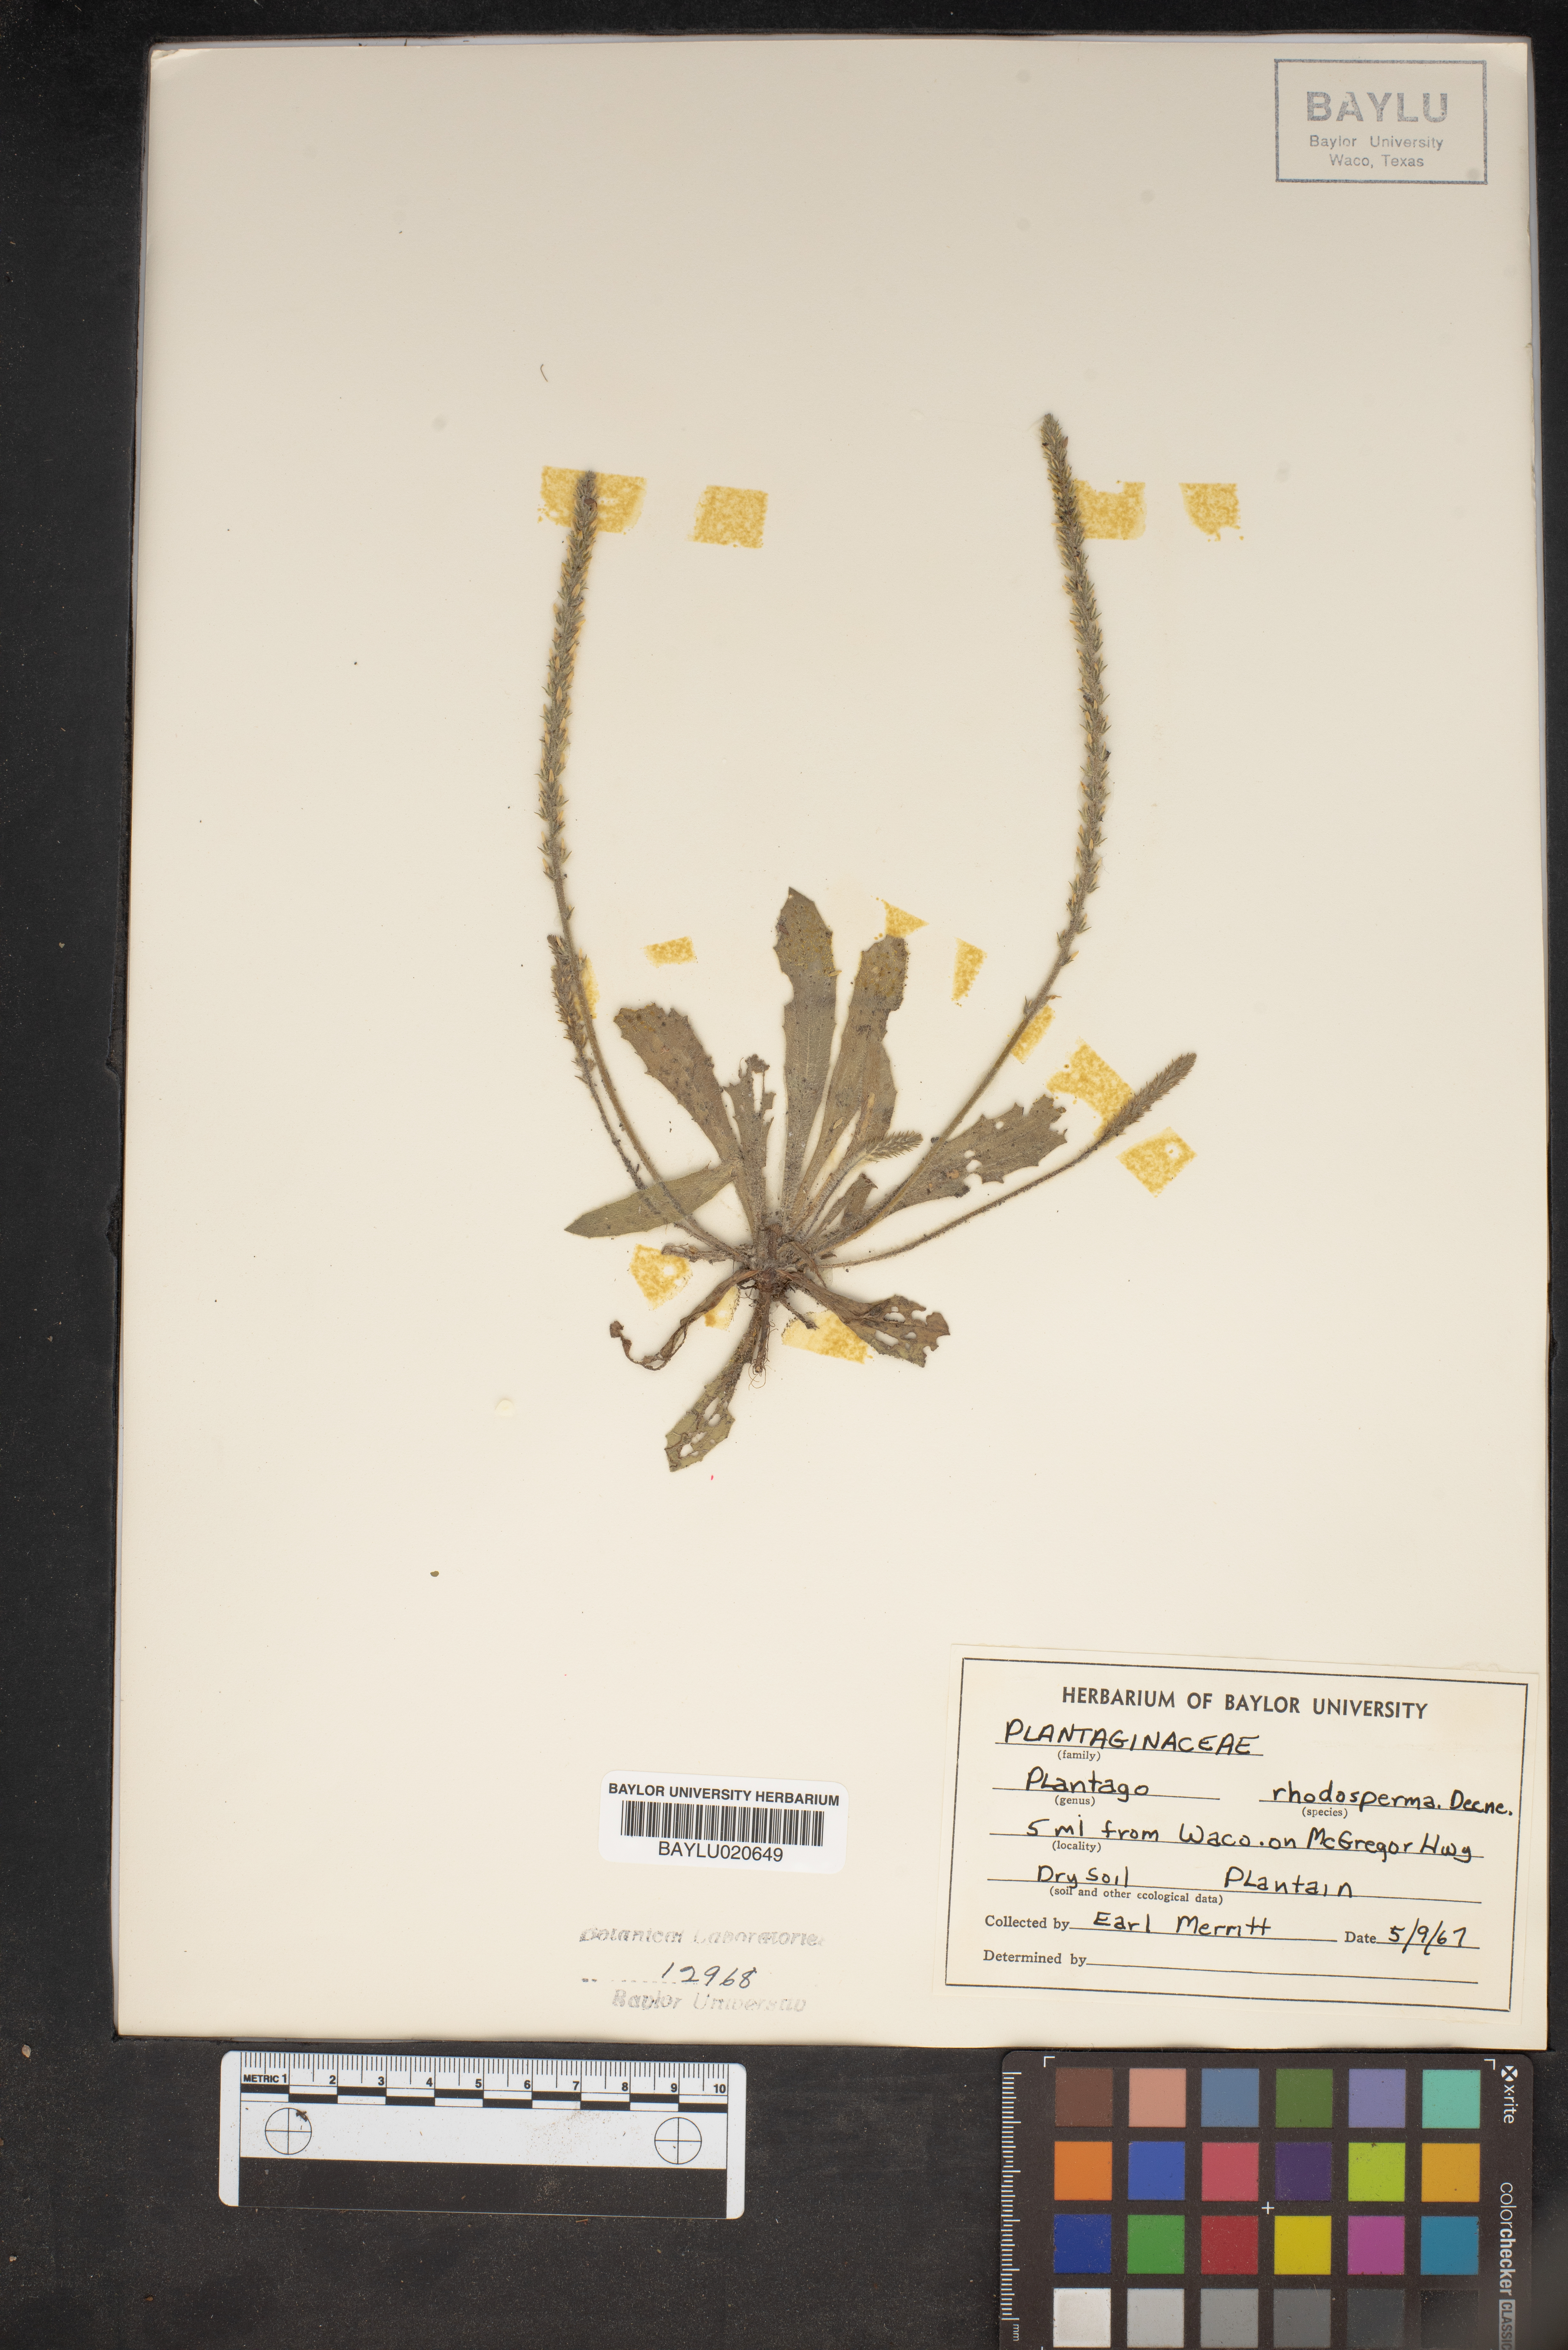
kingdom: Plantae
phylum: Tracheophyta
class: Magnoliopsida
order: Lamiales
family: Plantaginaceae
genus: Plantago
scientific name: Plantago rhodosperma
